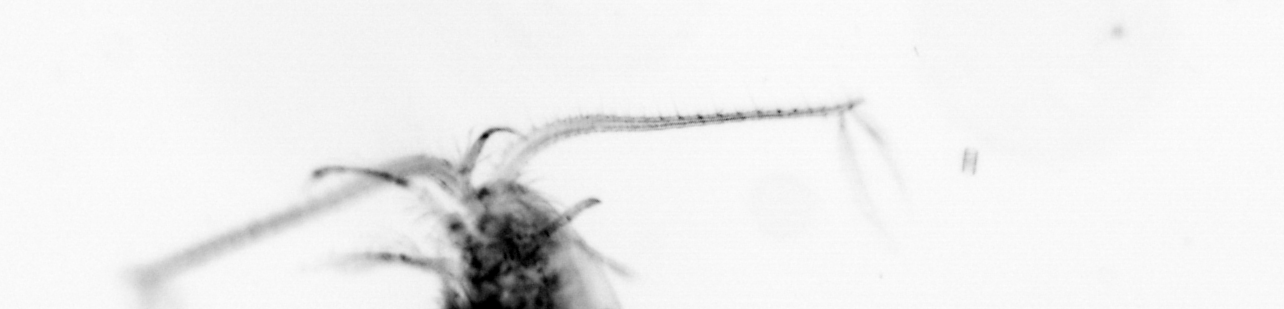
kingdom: Animalia
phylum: Arthropoda
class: Copepoda
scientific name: Copepoda
